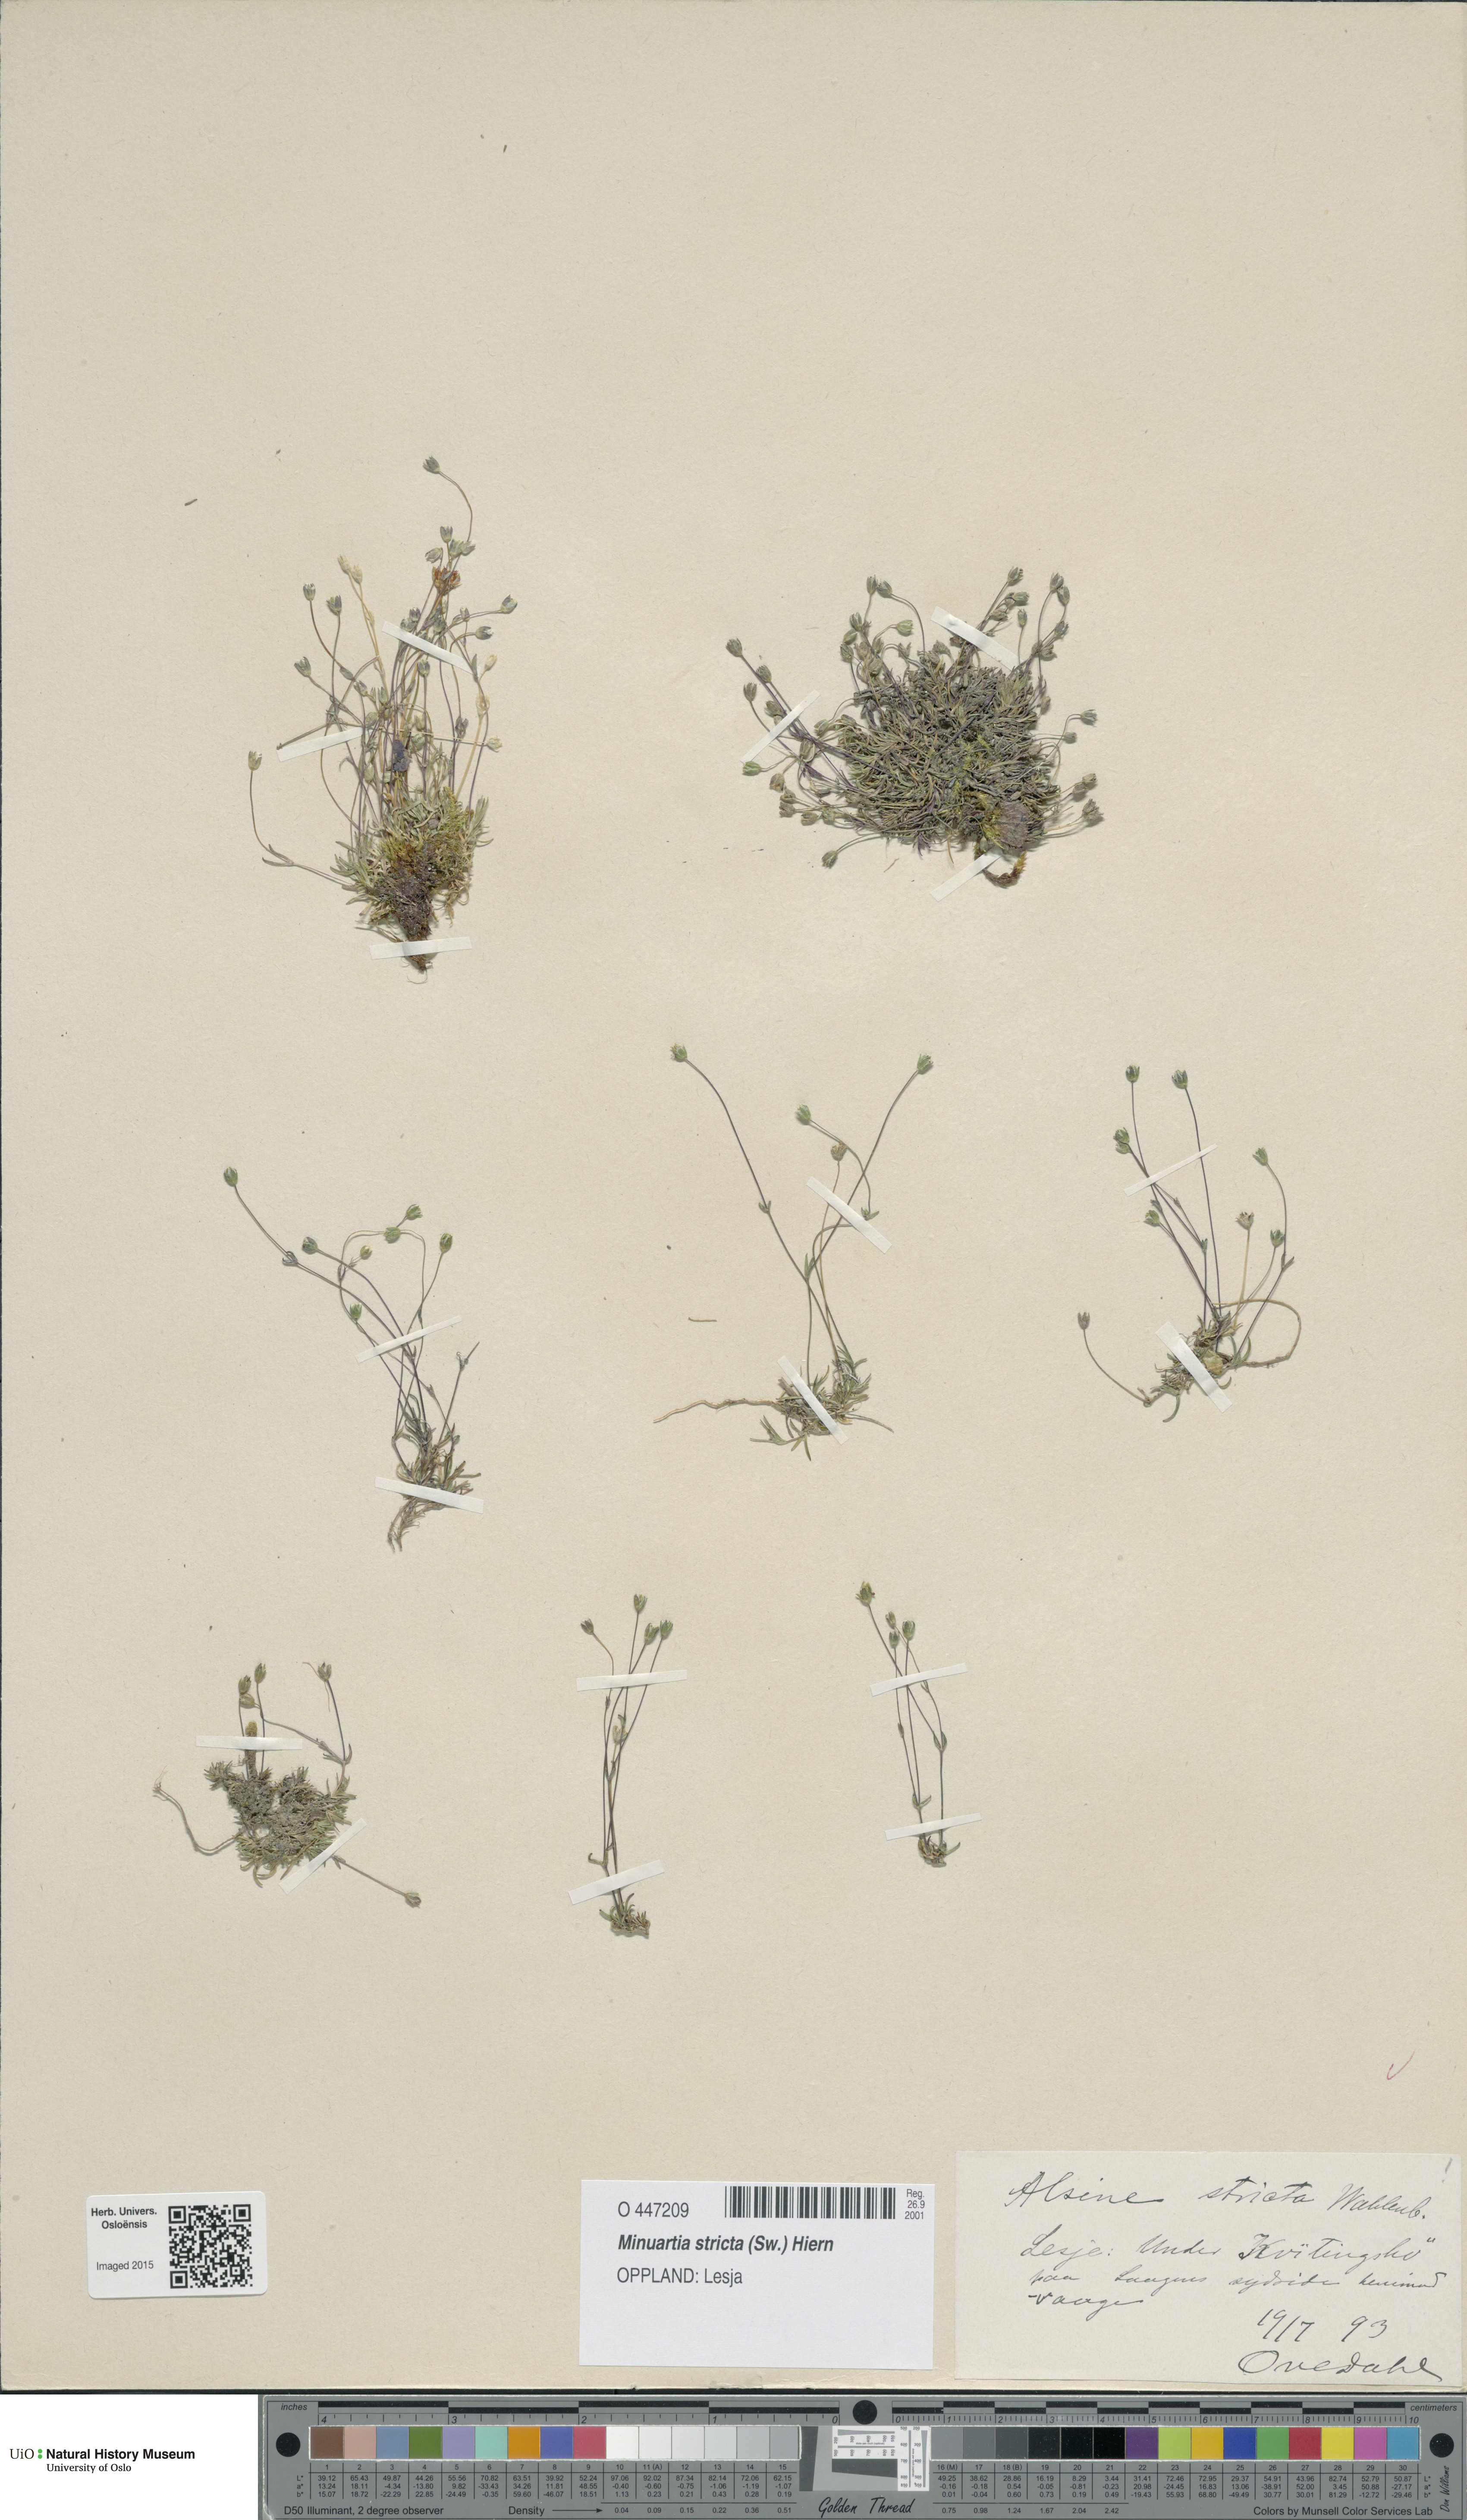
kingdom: Plantae
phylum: Tracheophyta
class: Magnoliopsida
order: Caryophyllales
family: Caryophyllaceae
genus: Sabulina
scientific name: Sabulina stricta
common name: Bog sandwort
